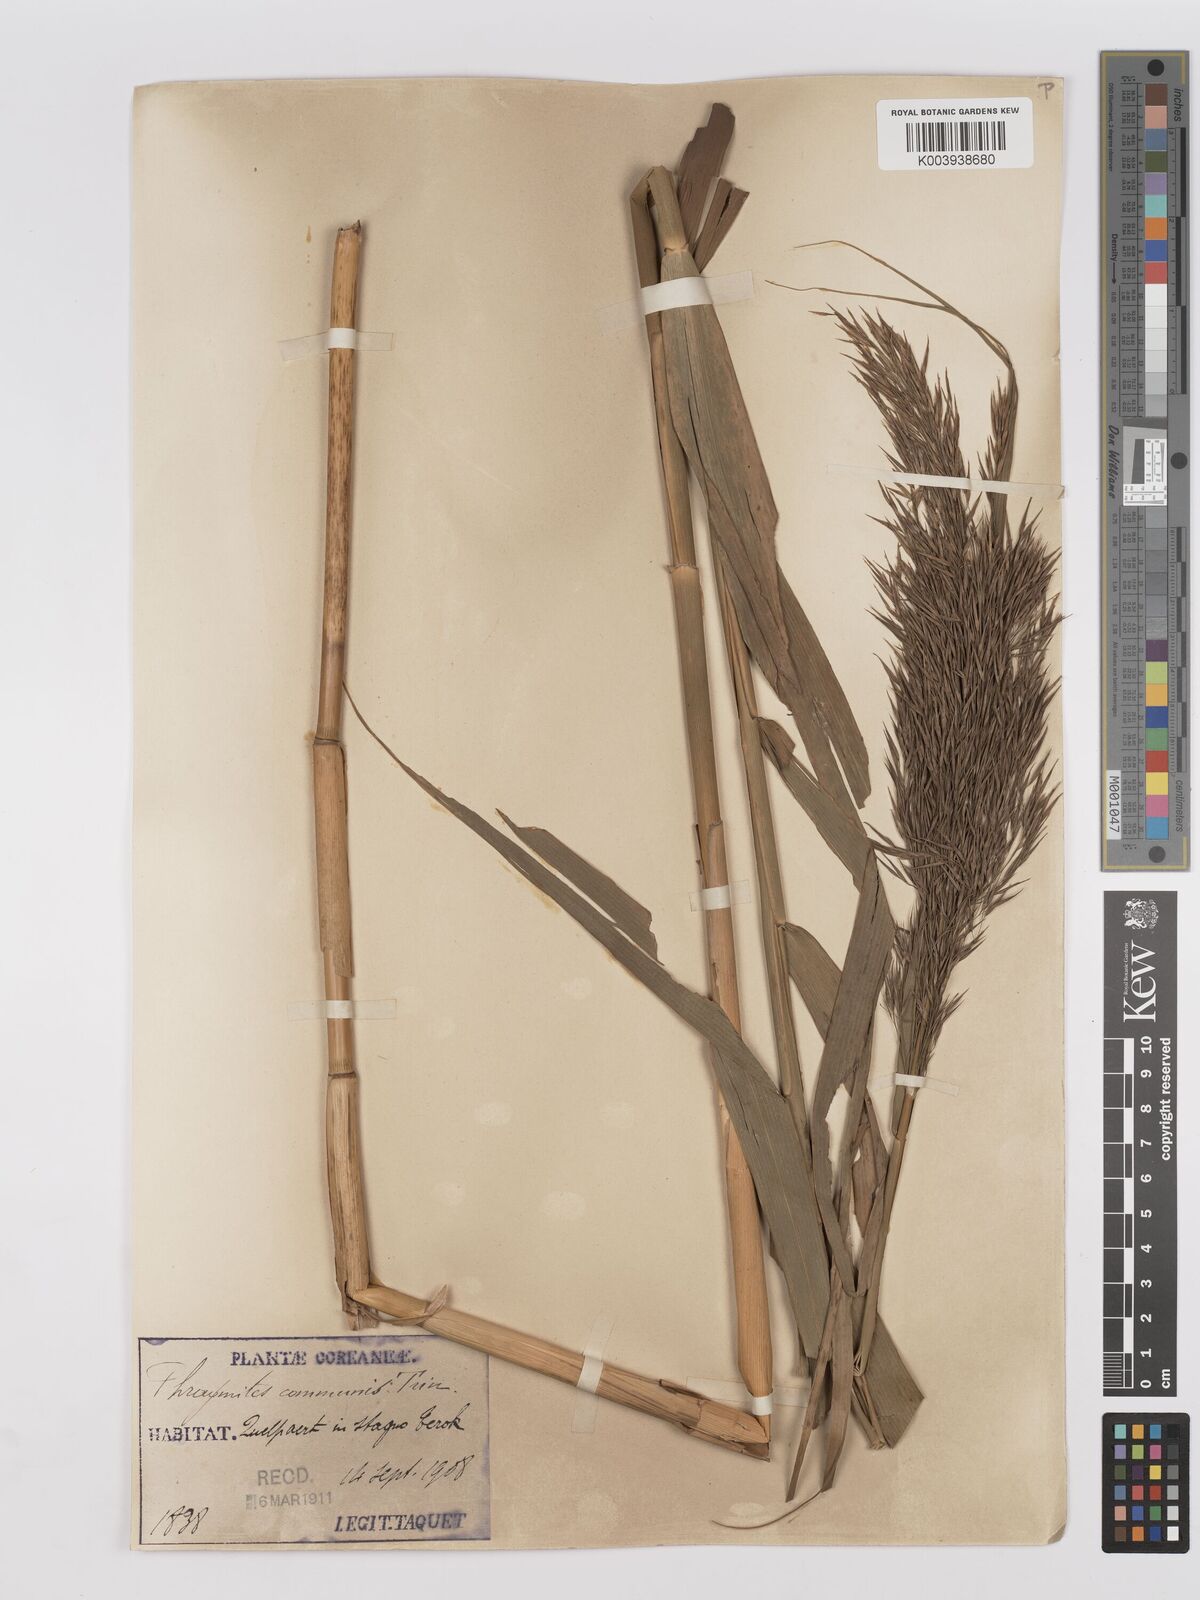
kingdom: Plantae
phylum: Tracheophyta
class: Liliopsida
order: Poales
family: Poaceae
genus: Phragmites
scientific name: Phragmites australis
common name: Common reed
